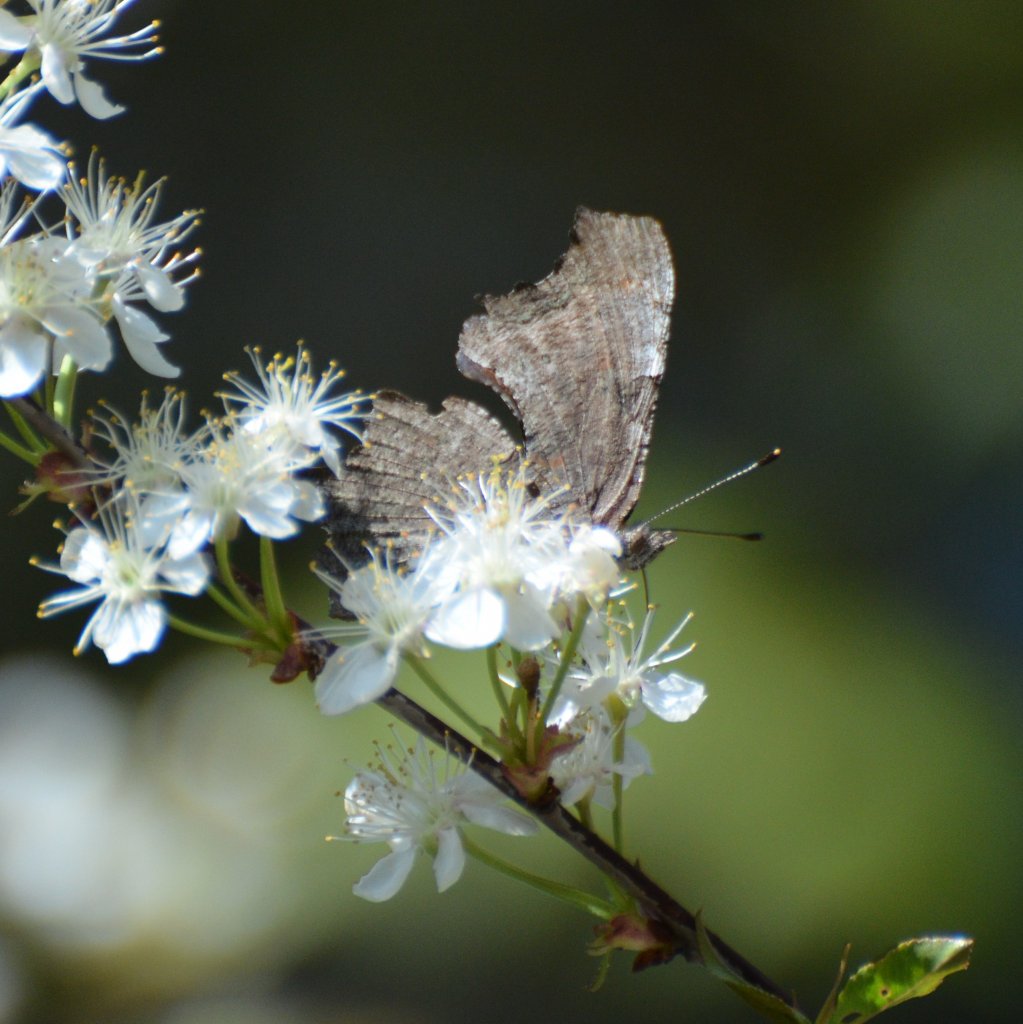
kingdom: Animalia
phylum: Arthropoda
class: Insecta
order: Lepidoptera
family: Nymphalidae
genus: Polygonia
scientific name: Polygonia faunus
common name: Green Comma
